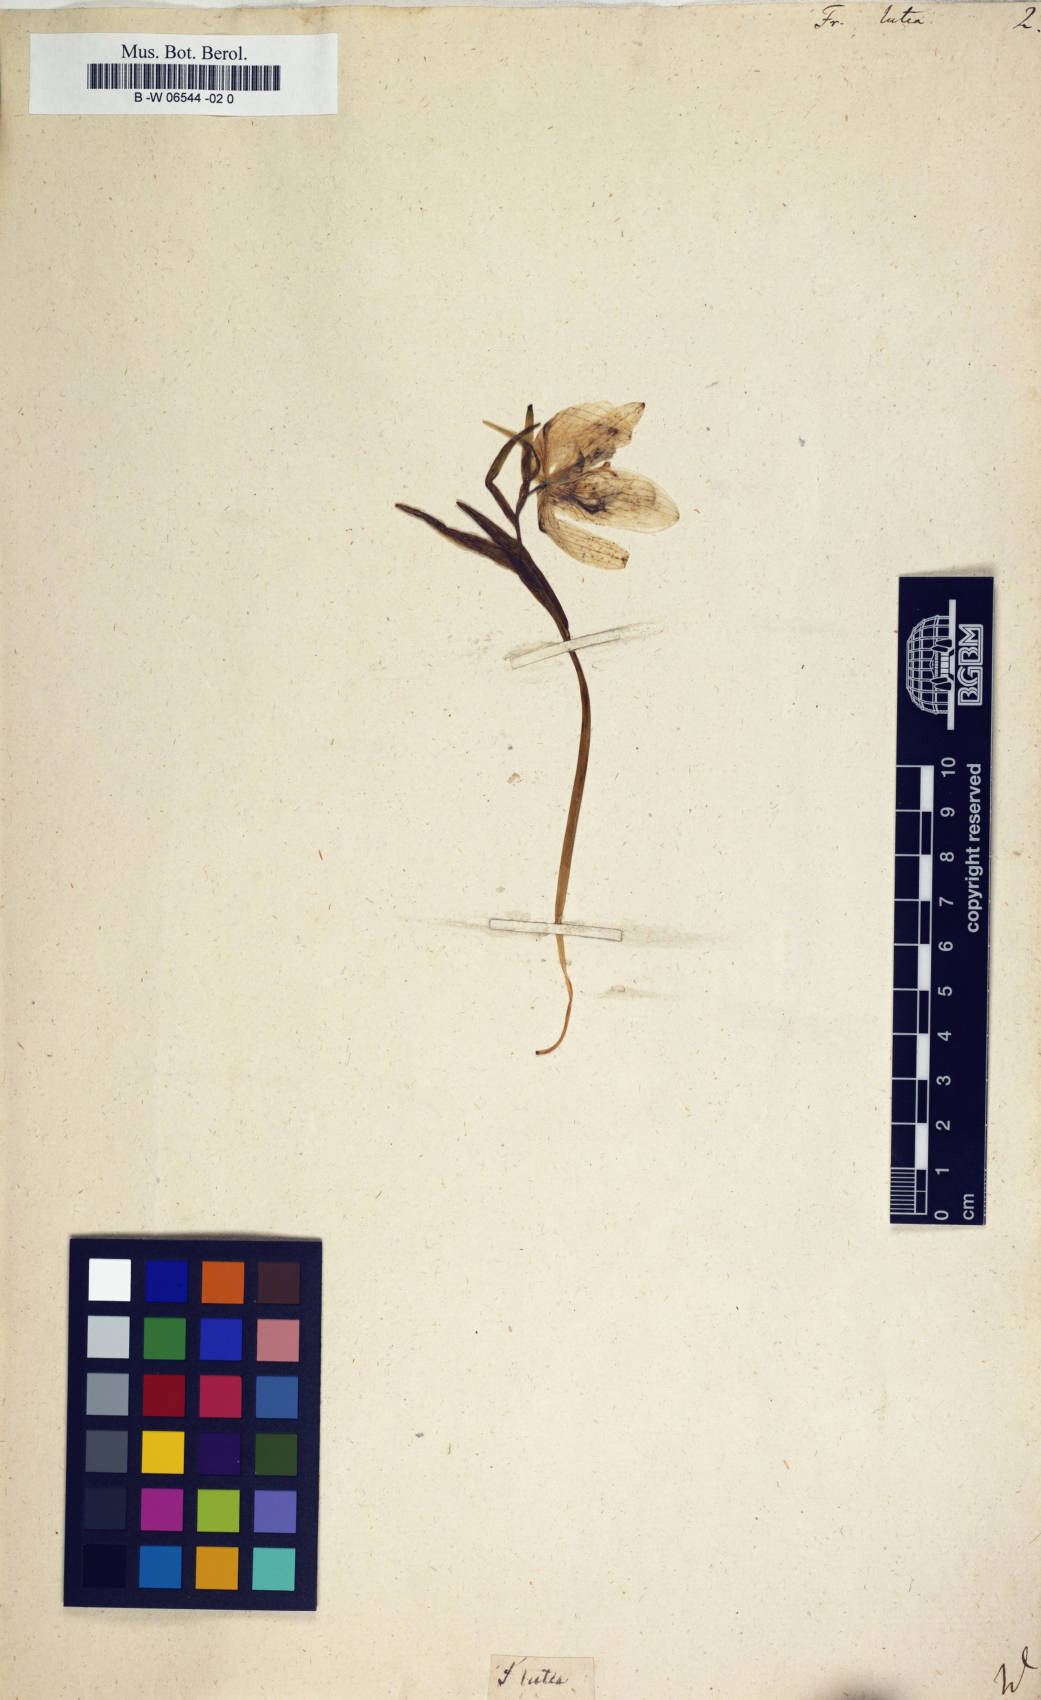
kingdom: Plantae
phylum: Tracheophyta
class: Liliopsida
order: Liliales
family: Liliaceae
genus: Fritillaria
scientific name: Fritillaria
